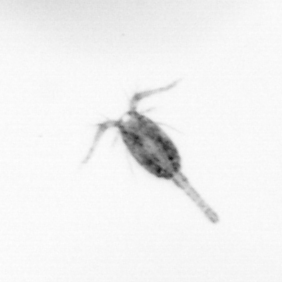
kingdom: Animalia
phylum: Arthropoda
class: Copepoda
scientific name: Copepoda
